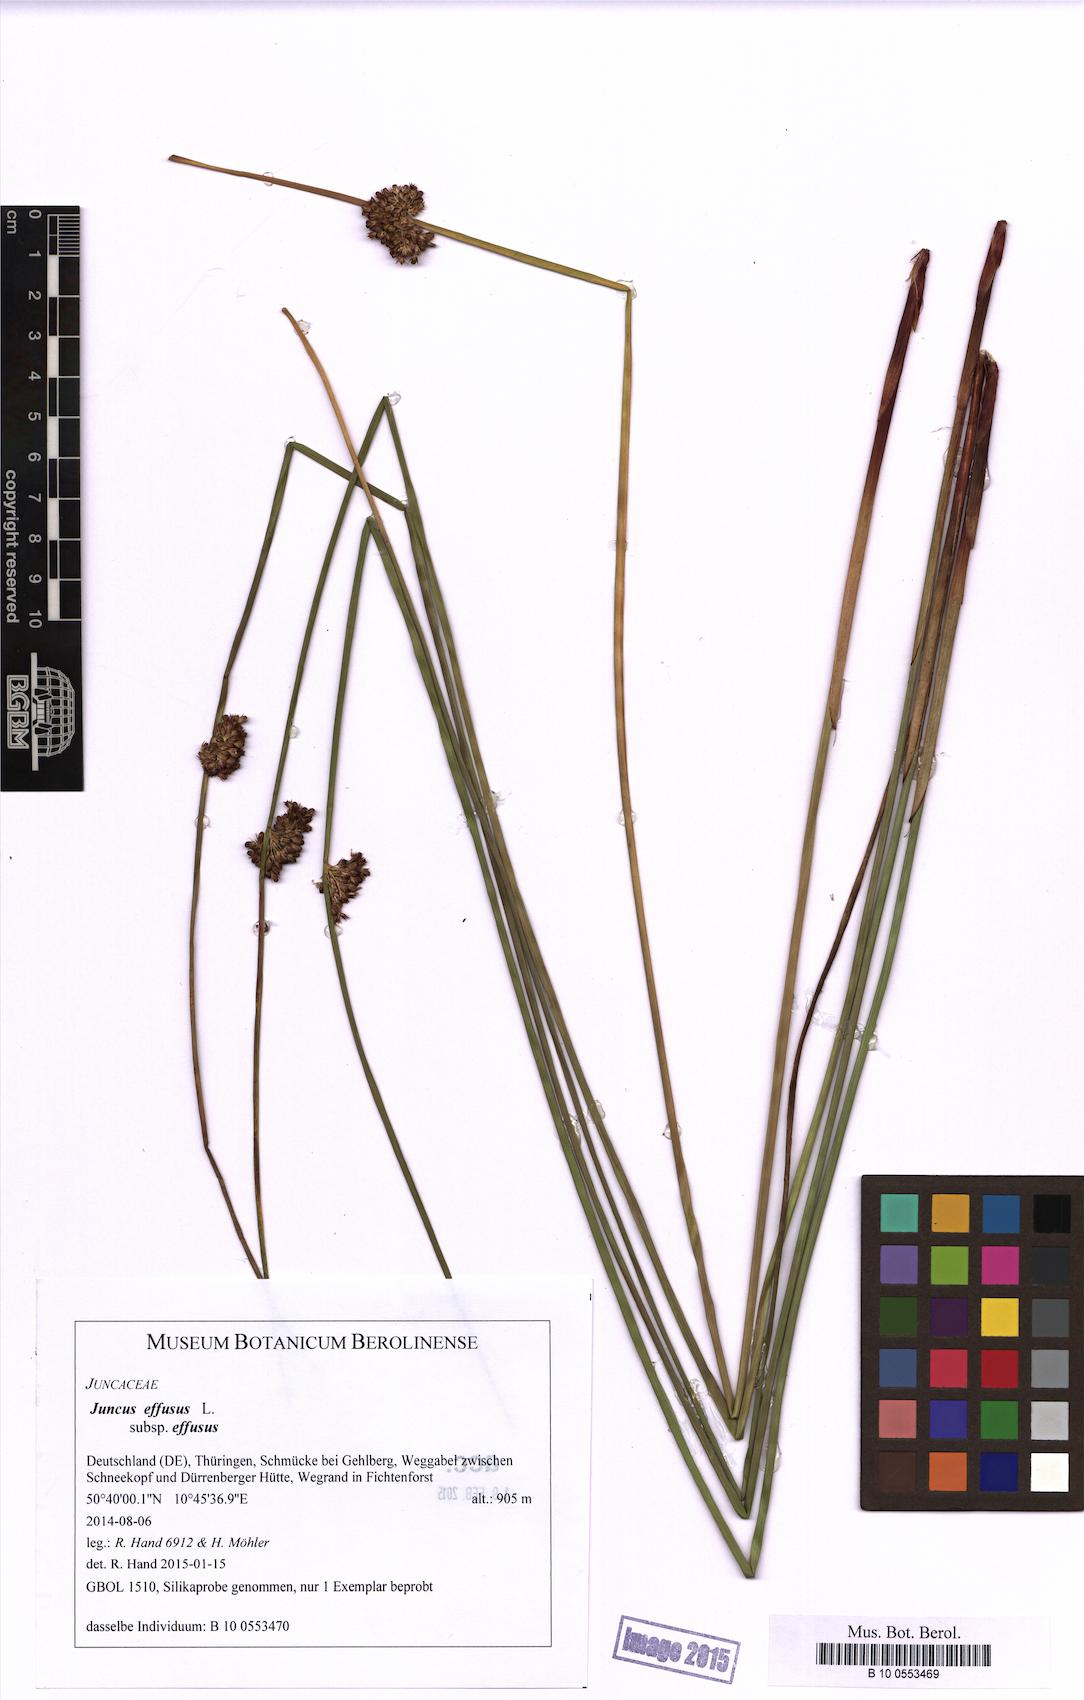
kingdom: Plantae
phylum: Tracheophyta
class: Liliopsida
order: Poales
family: Juncaceae
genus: Juncus
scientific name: Juncus effusus
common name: Soft rush
